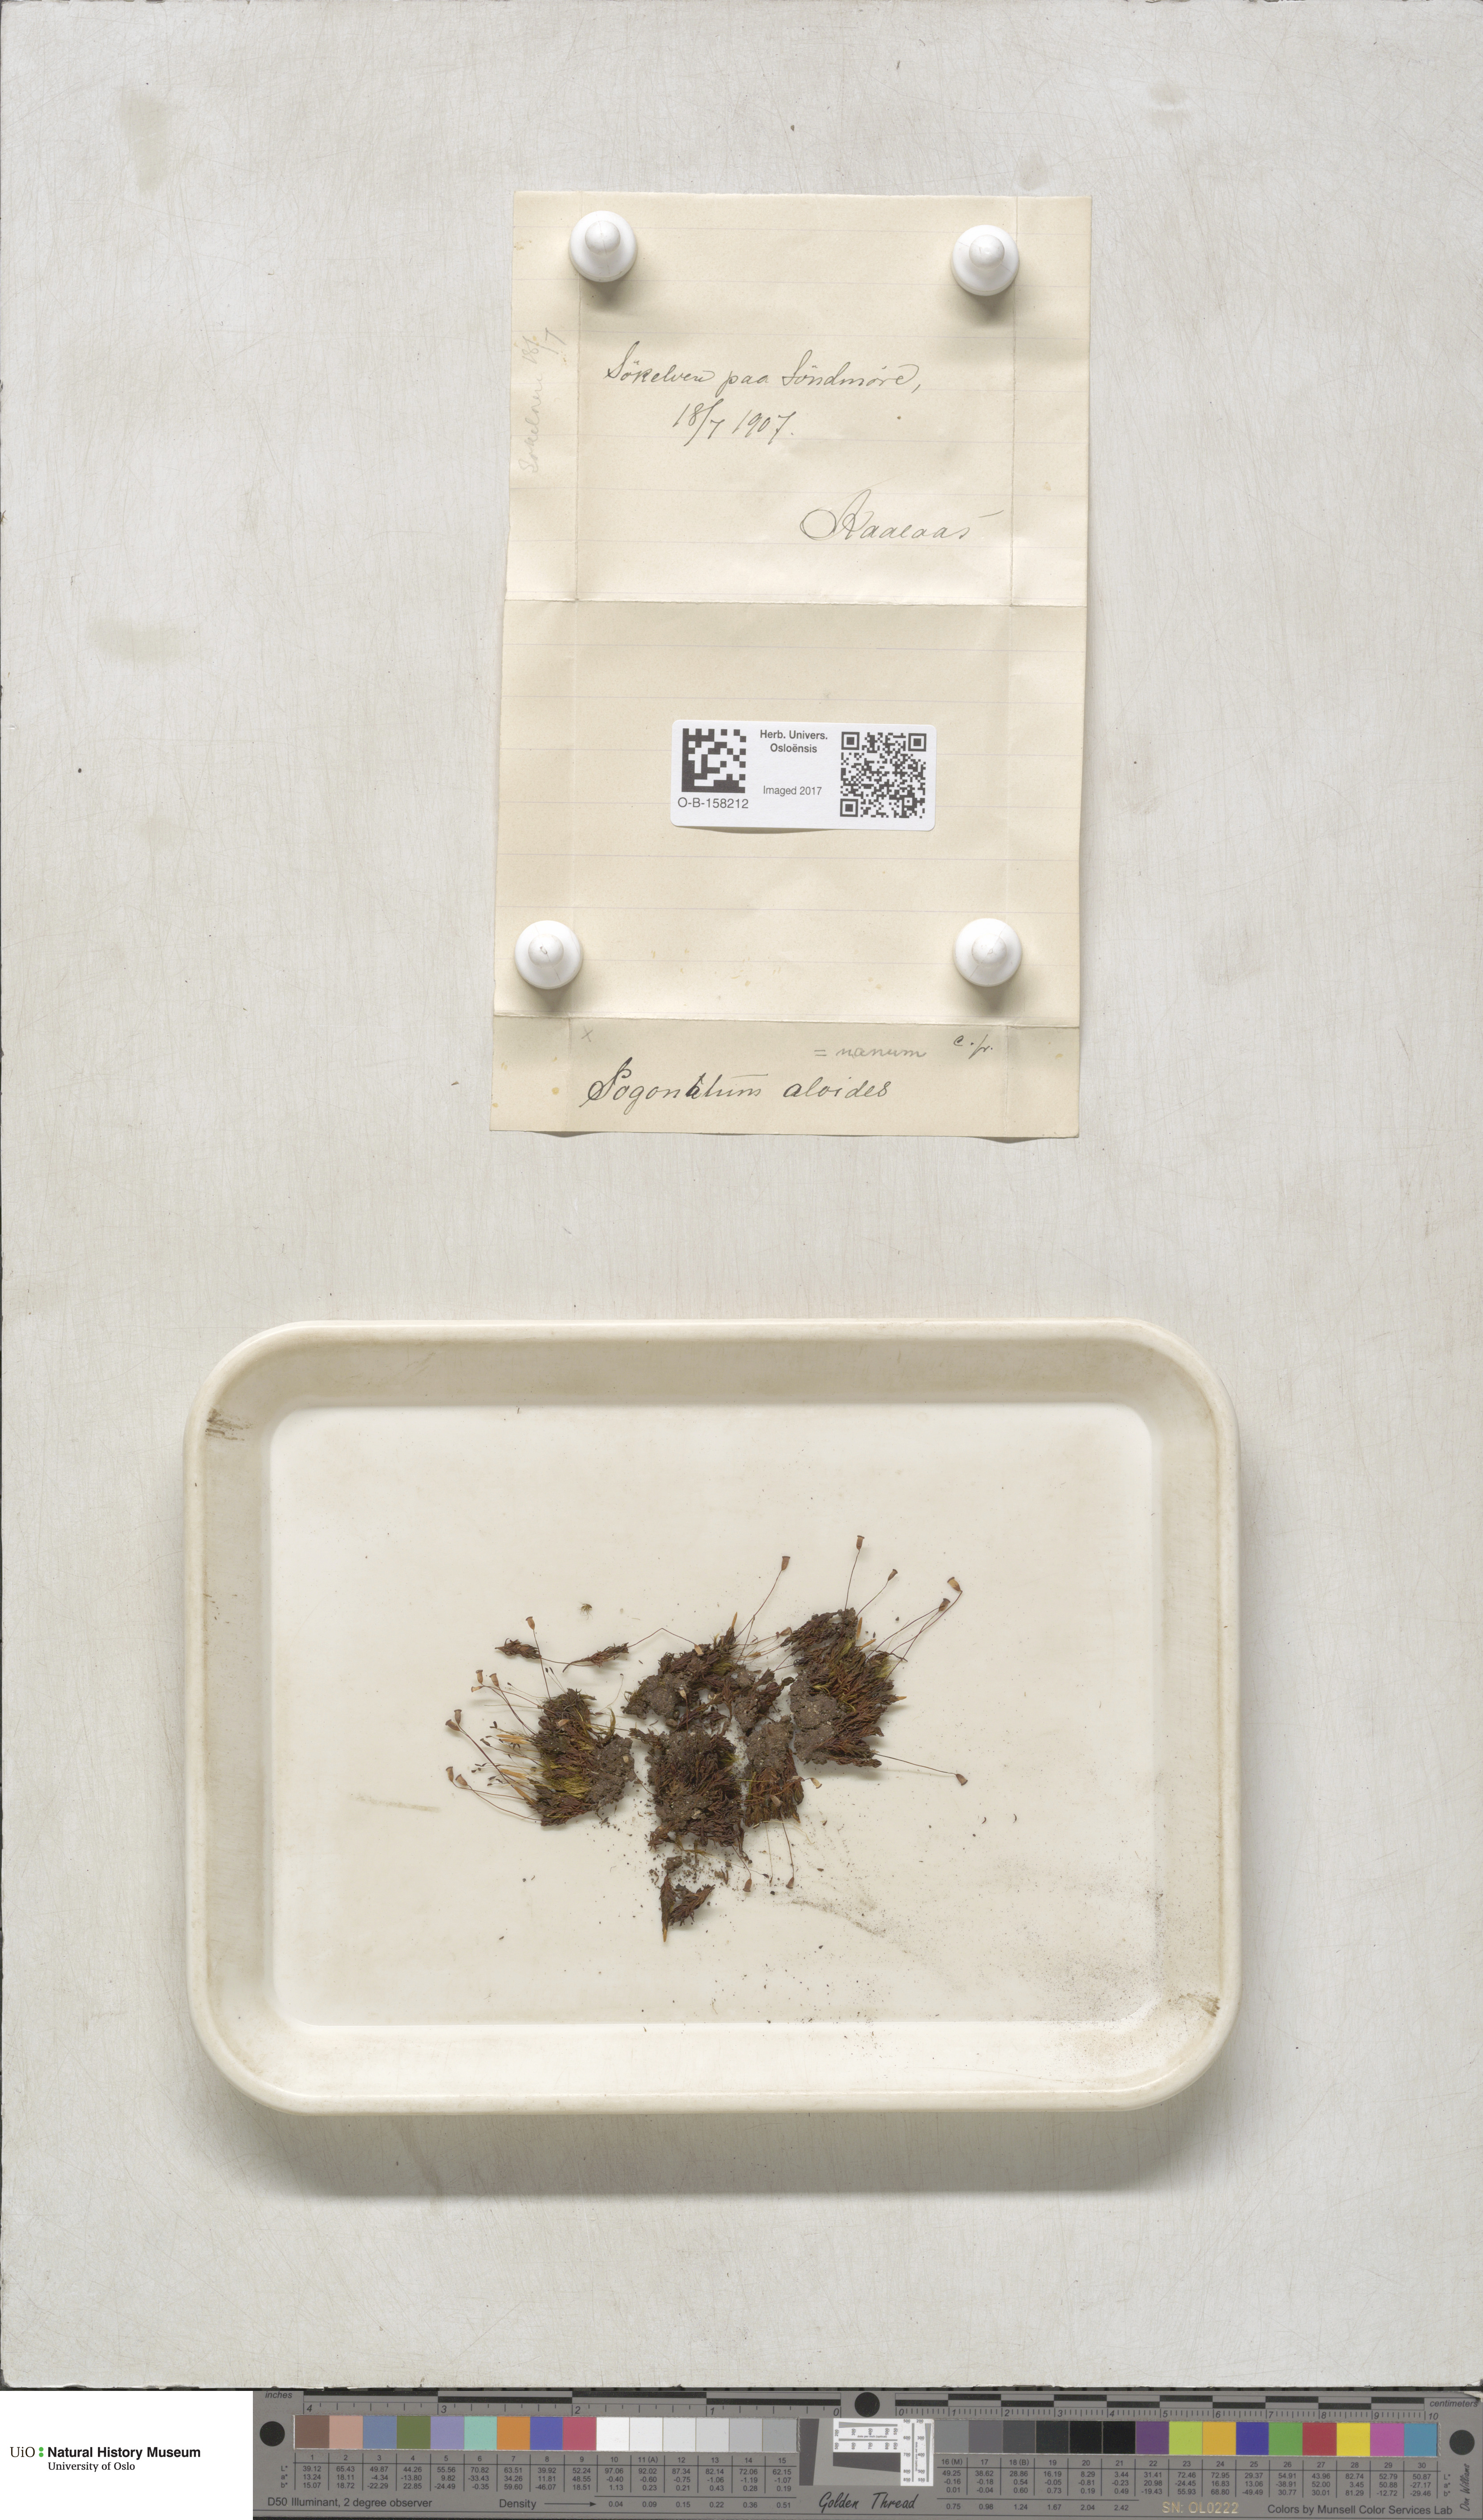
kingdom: Plantae
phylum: Bryophyta
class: Polytrichopsida
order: Polytrichales
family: Polytrichaceae
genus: Pogonatum
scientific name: Pogonatum aloides
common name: Aloe haircap
